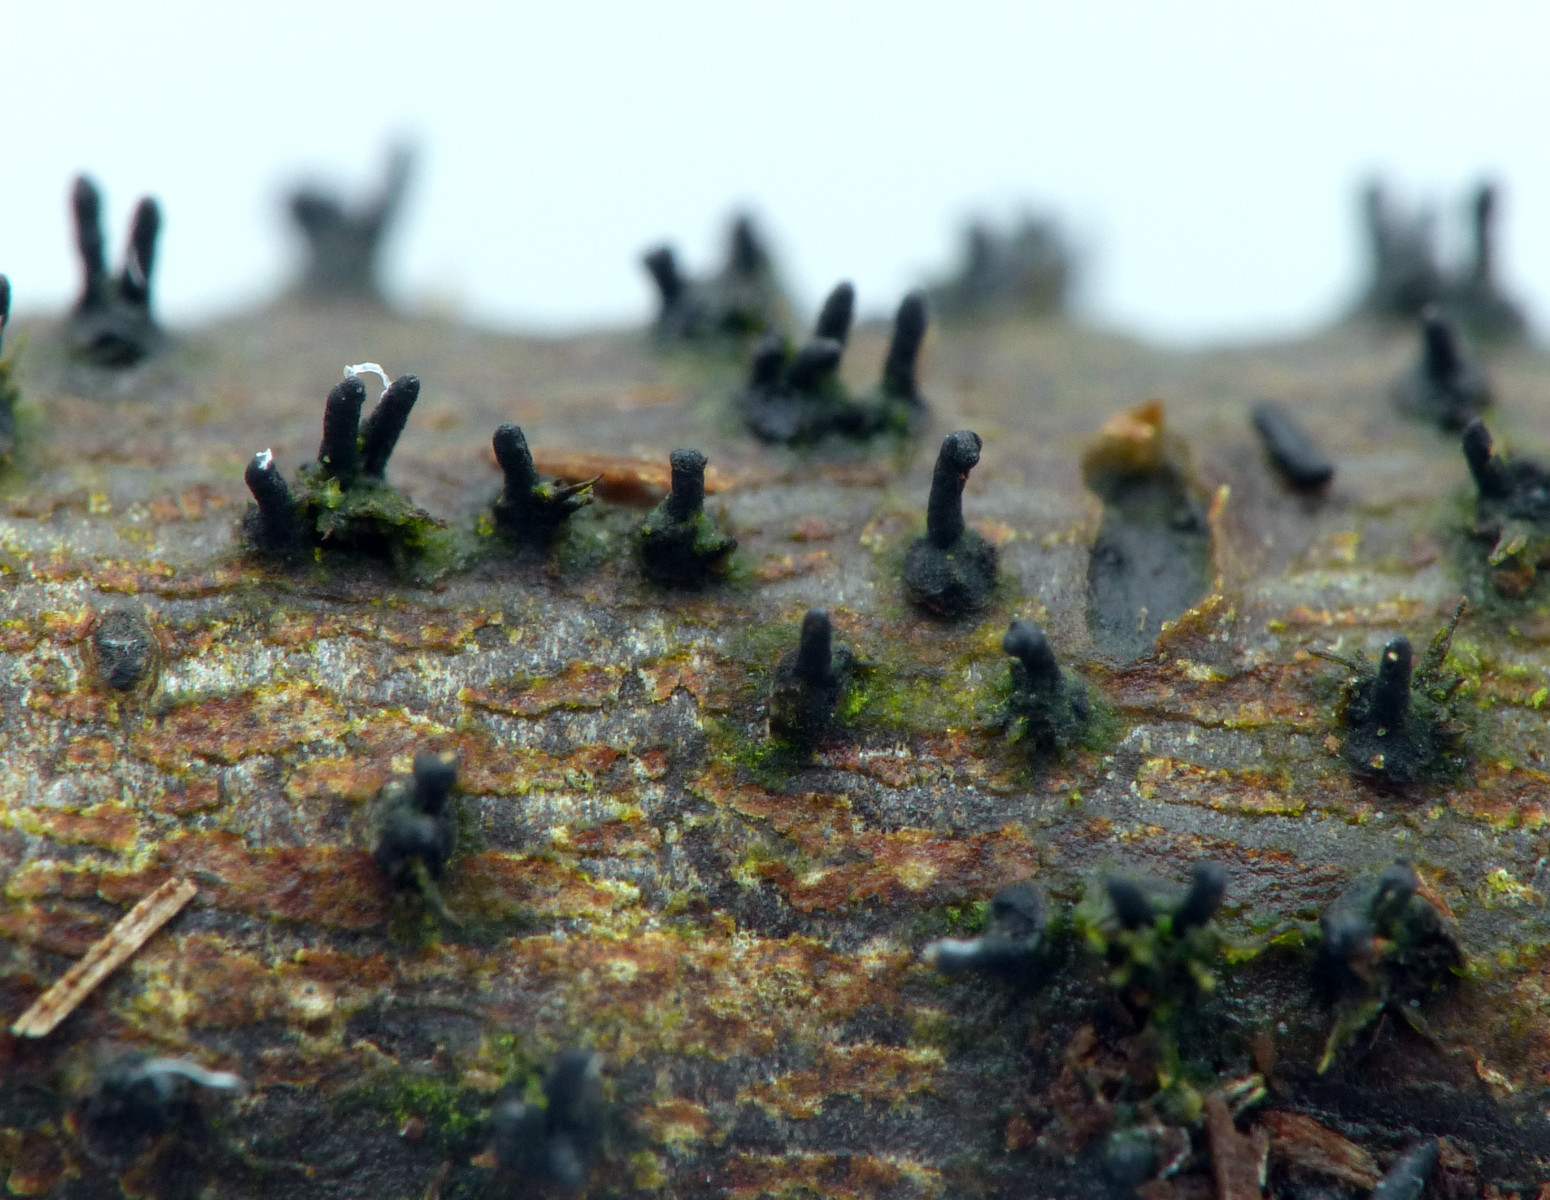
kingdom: Fungi
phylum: Ascomycota
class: Sordariomycetes
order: Xylariales
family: Diatrypaceae
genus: Peroneutypa
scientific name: Peroneutypa scoparia
